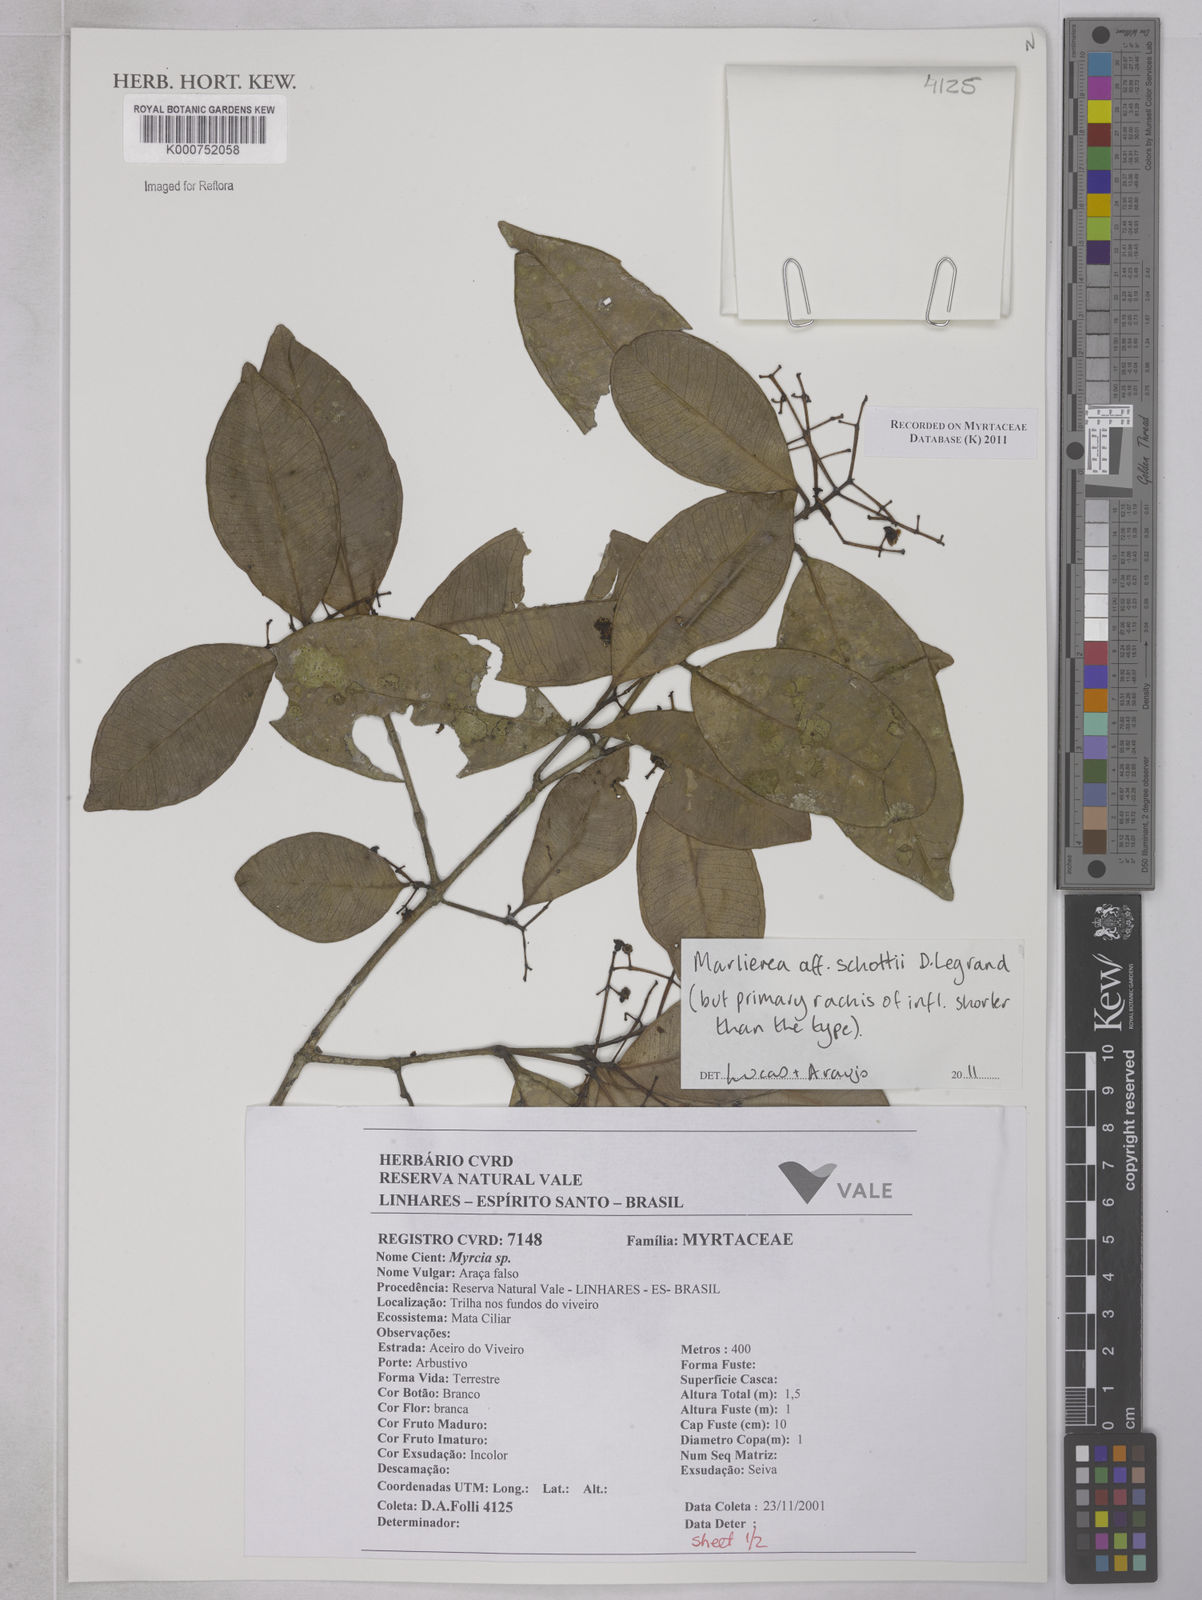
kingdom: Plantae
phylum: Tracheophyta
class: Magnoliopsida
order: Myrtales
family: Myrtaceae
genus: Myrcia
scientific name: Myrcia schottii
